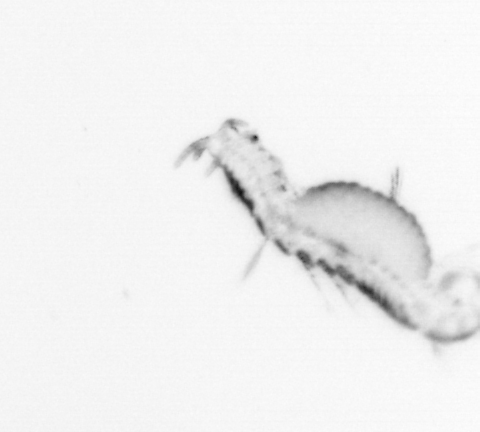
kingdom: Animalia
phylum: Annelida
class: Polychaeta
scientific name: Polychaeta
